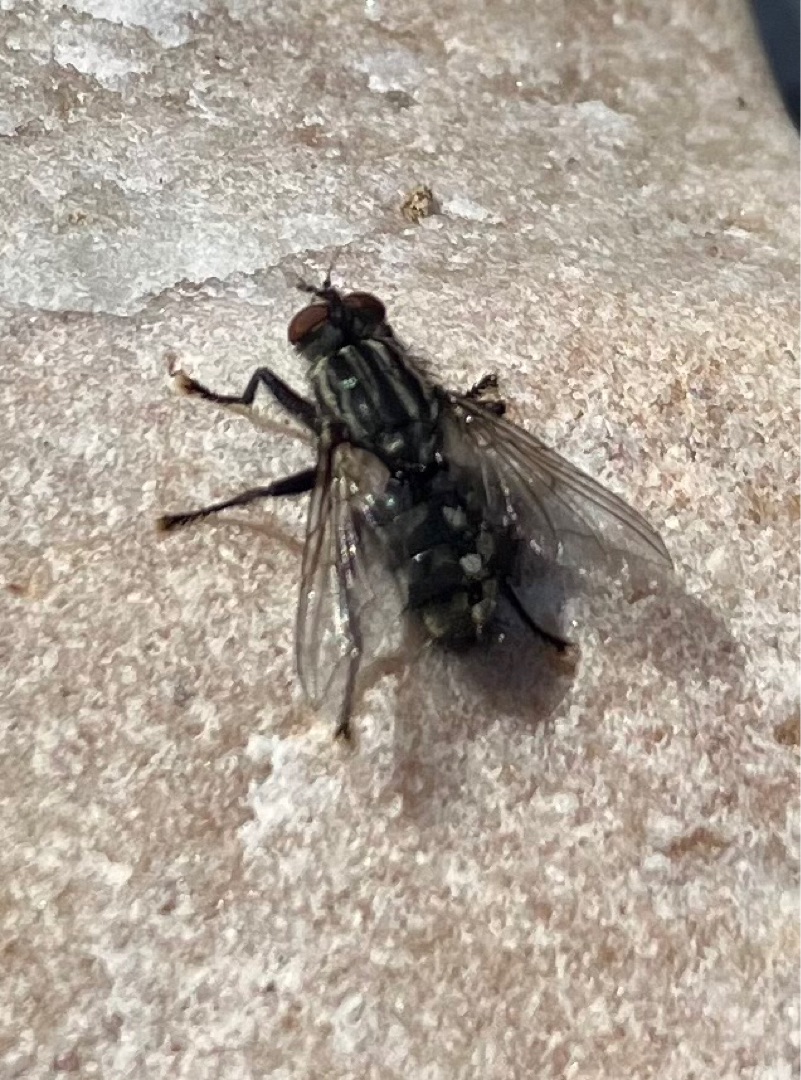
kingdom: Animalia
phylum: Arthropoda
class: Insecta
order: Diptera
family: Sarcophagidae
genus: Sarcophaga
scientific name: Sarcophaga
